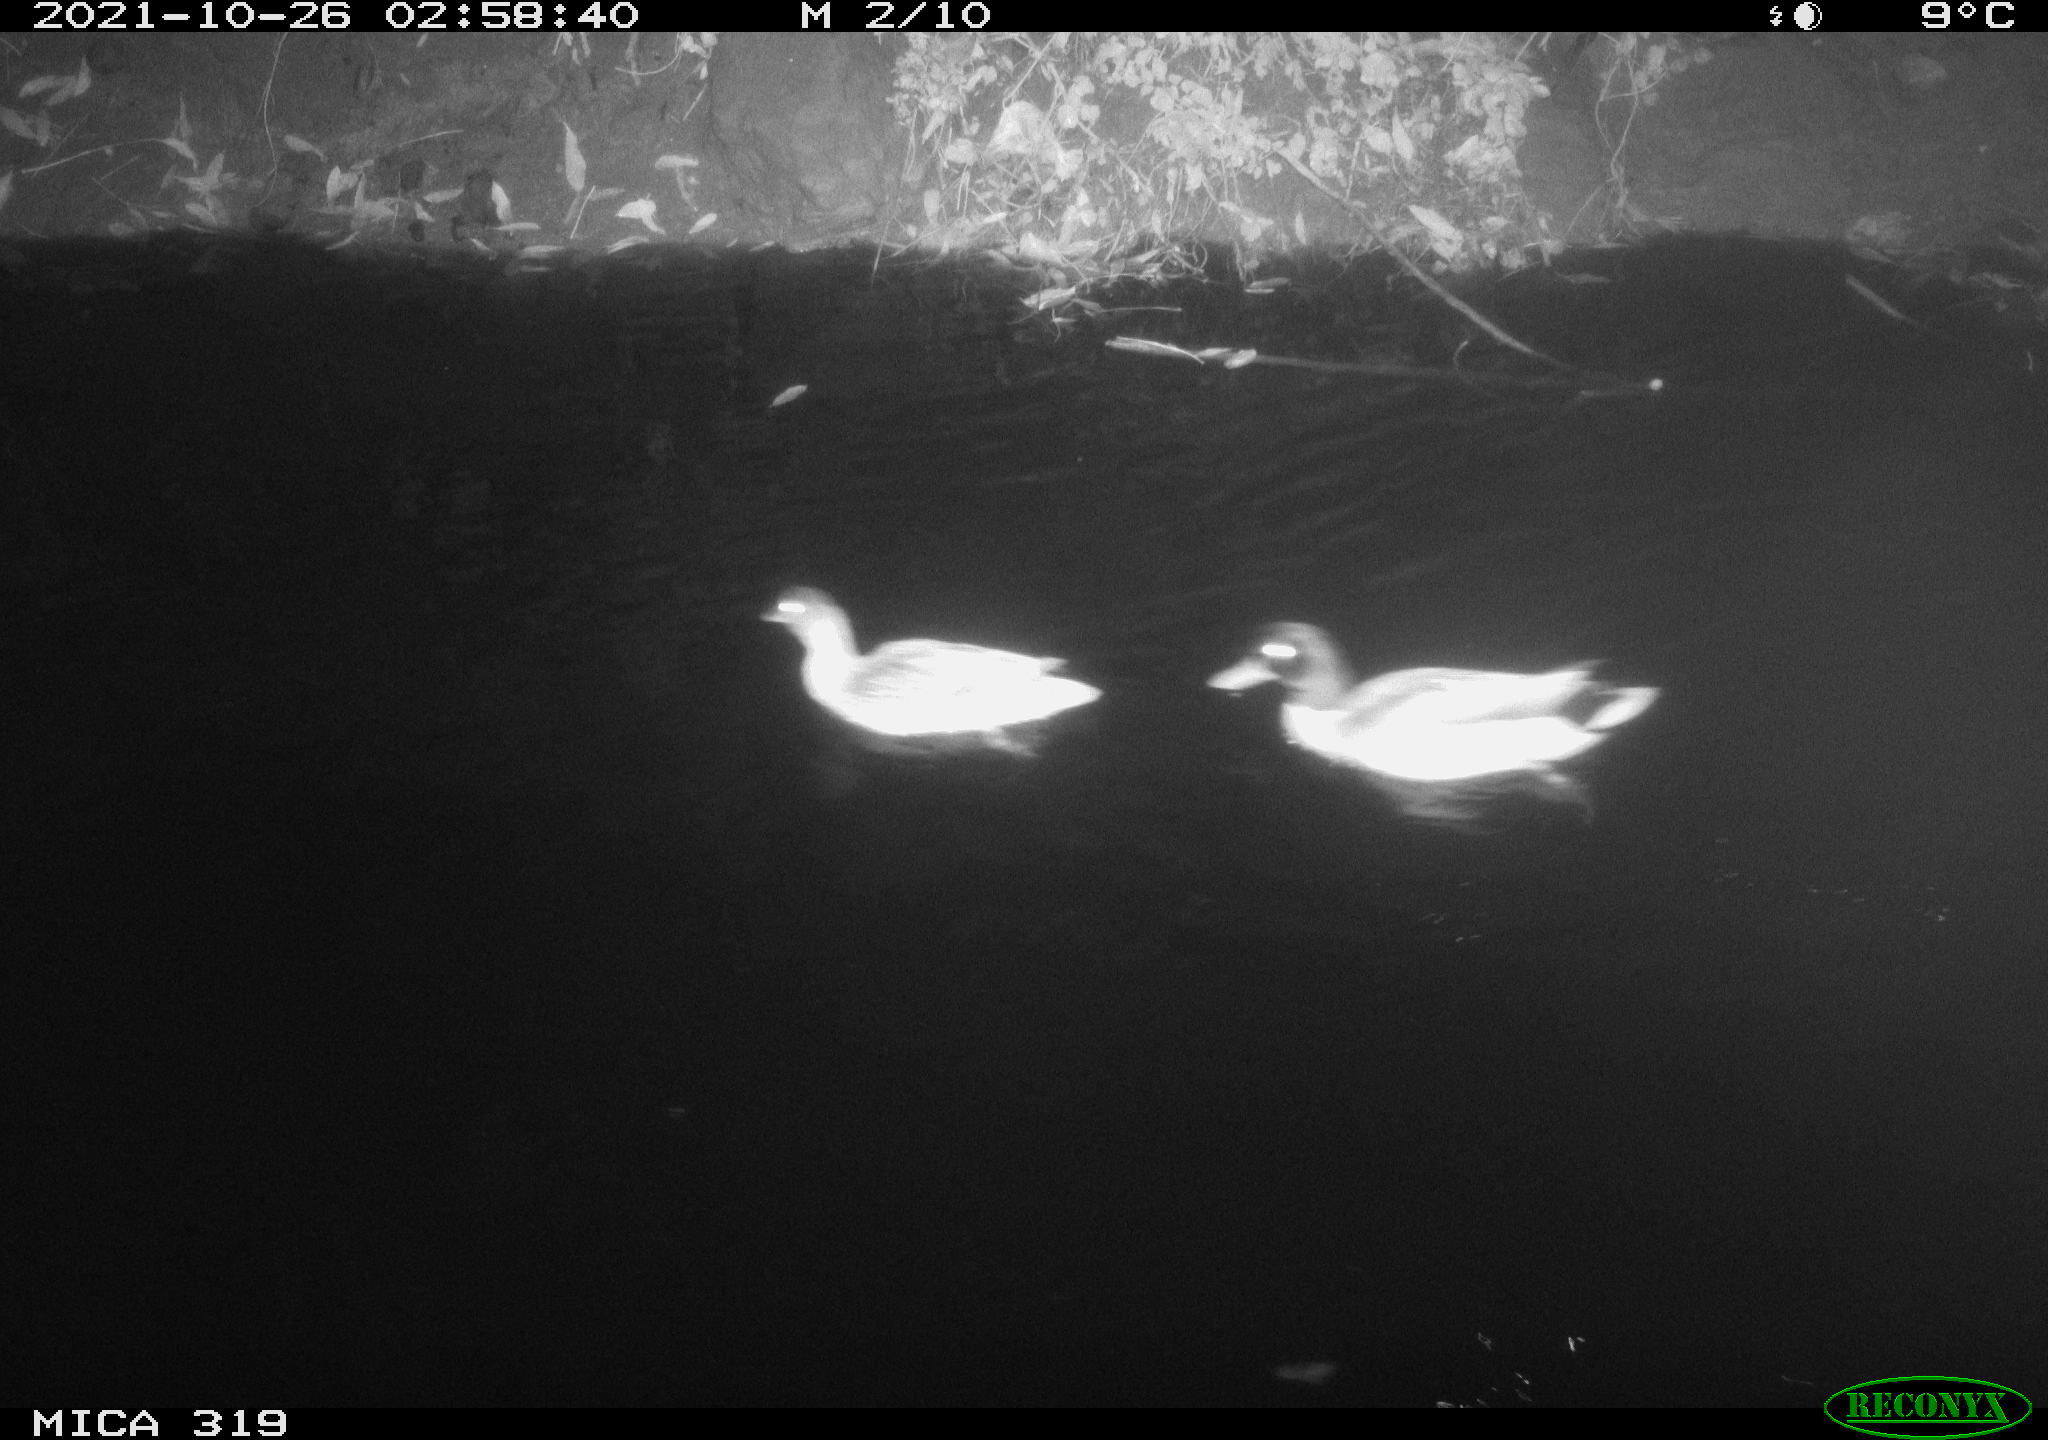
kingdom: Animalia
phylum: Chordata
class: Aves
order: Anseriformes
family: Anatidae
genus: Anas
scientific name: Anas platyrhynchos
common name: Mallard
